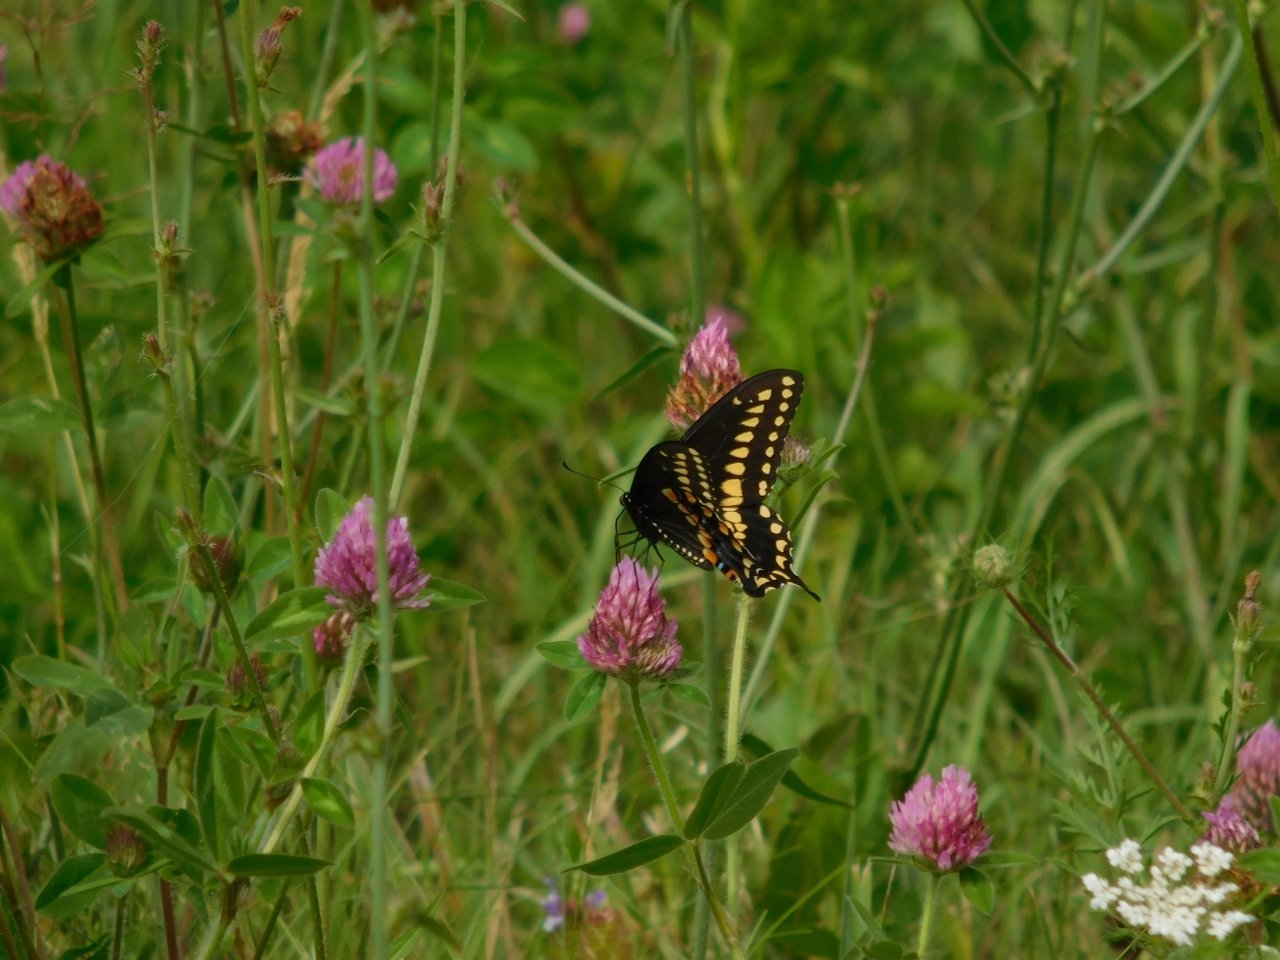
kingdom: Animalia
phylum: Arthropoda
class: Insecta
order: Lepidoptera
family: Papilionidae
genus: Papilio
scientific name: Papilio polyxenes
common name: Black Swallowtail
